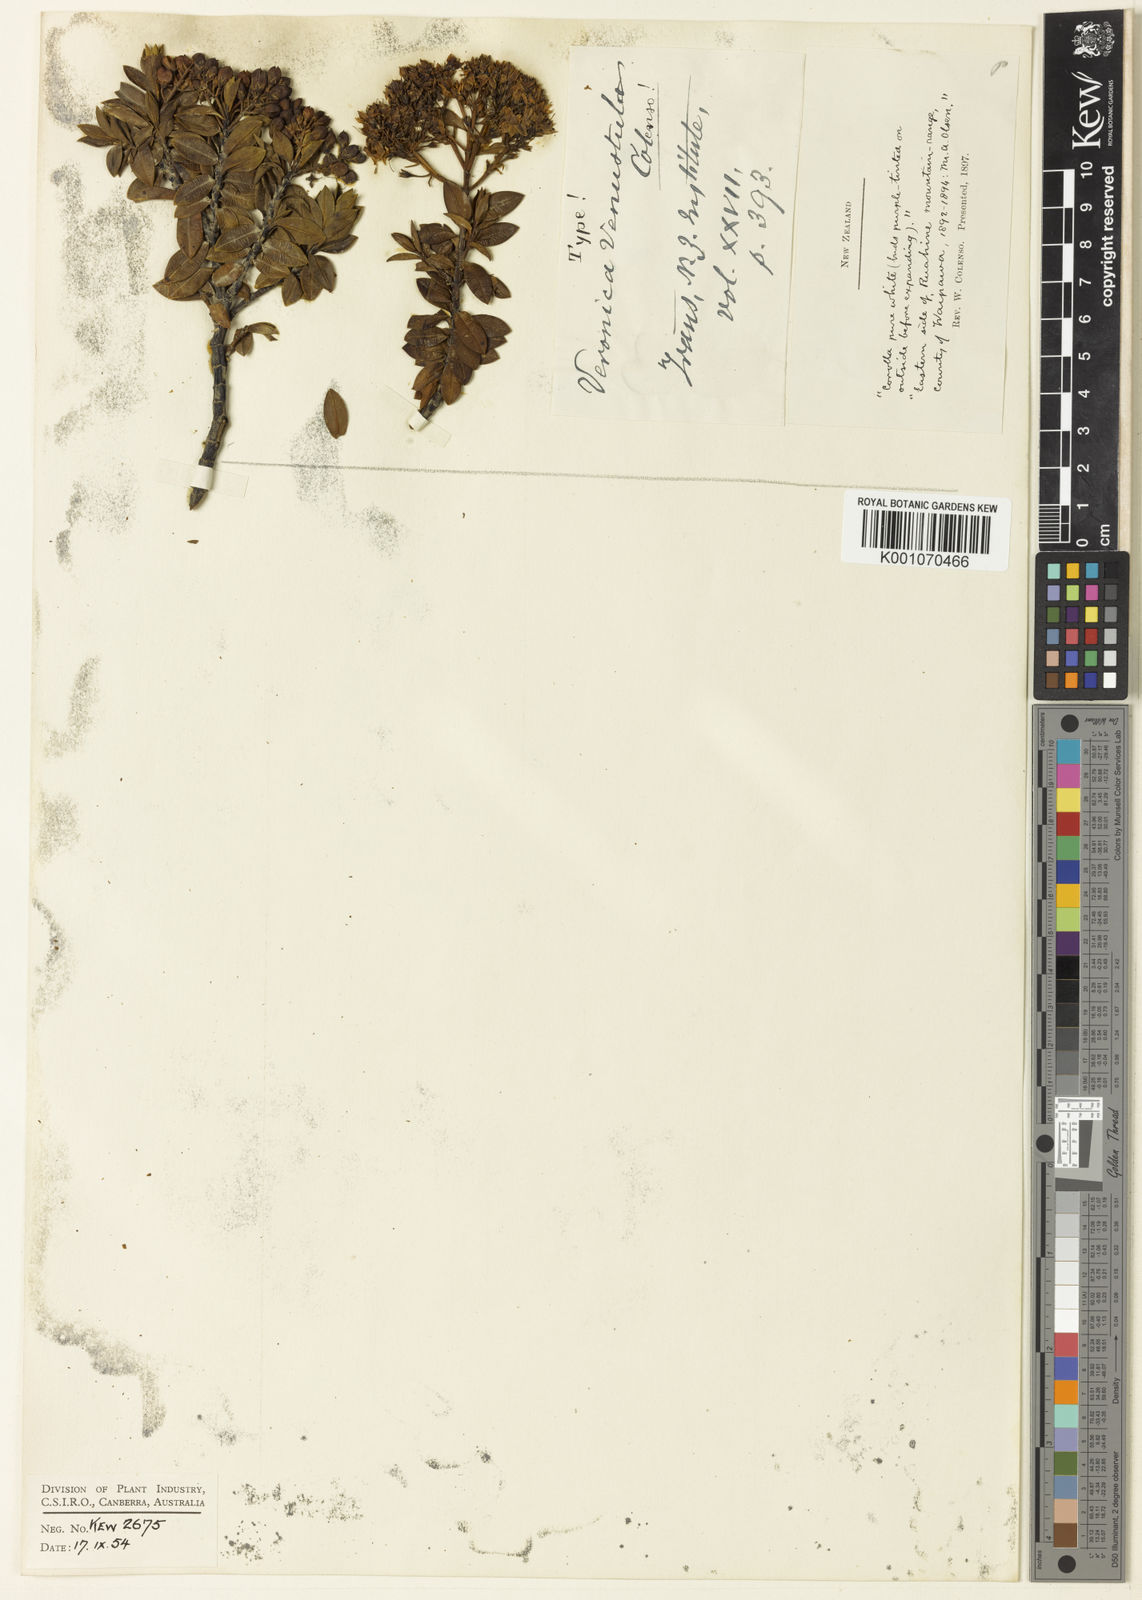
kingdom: Plantae
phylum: Tracheophyta
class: Magnoliopsida
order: Lamiales
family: Plantaginaceae
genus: Veronica
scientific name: Veronica venustula
